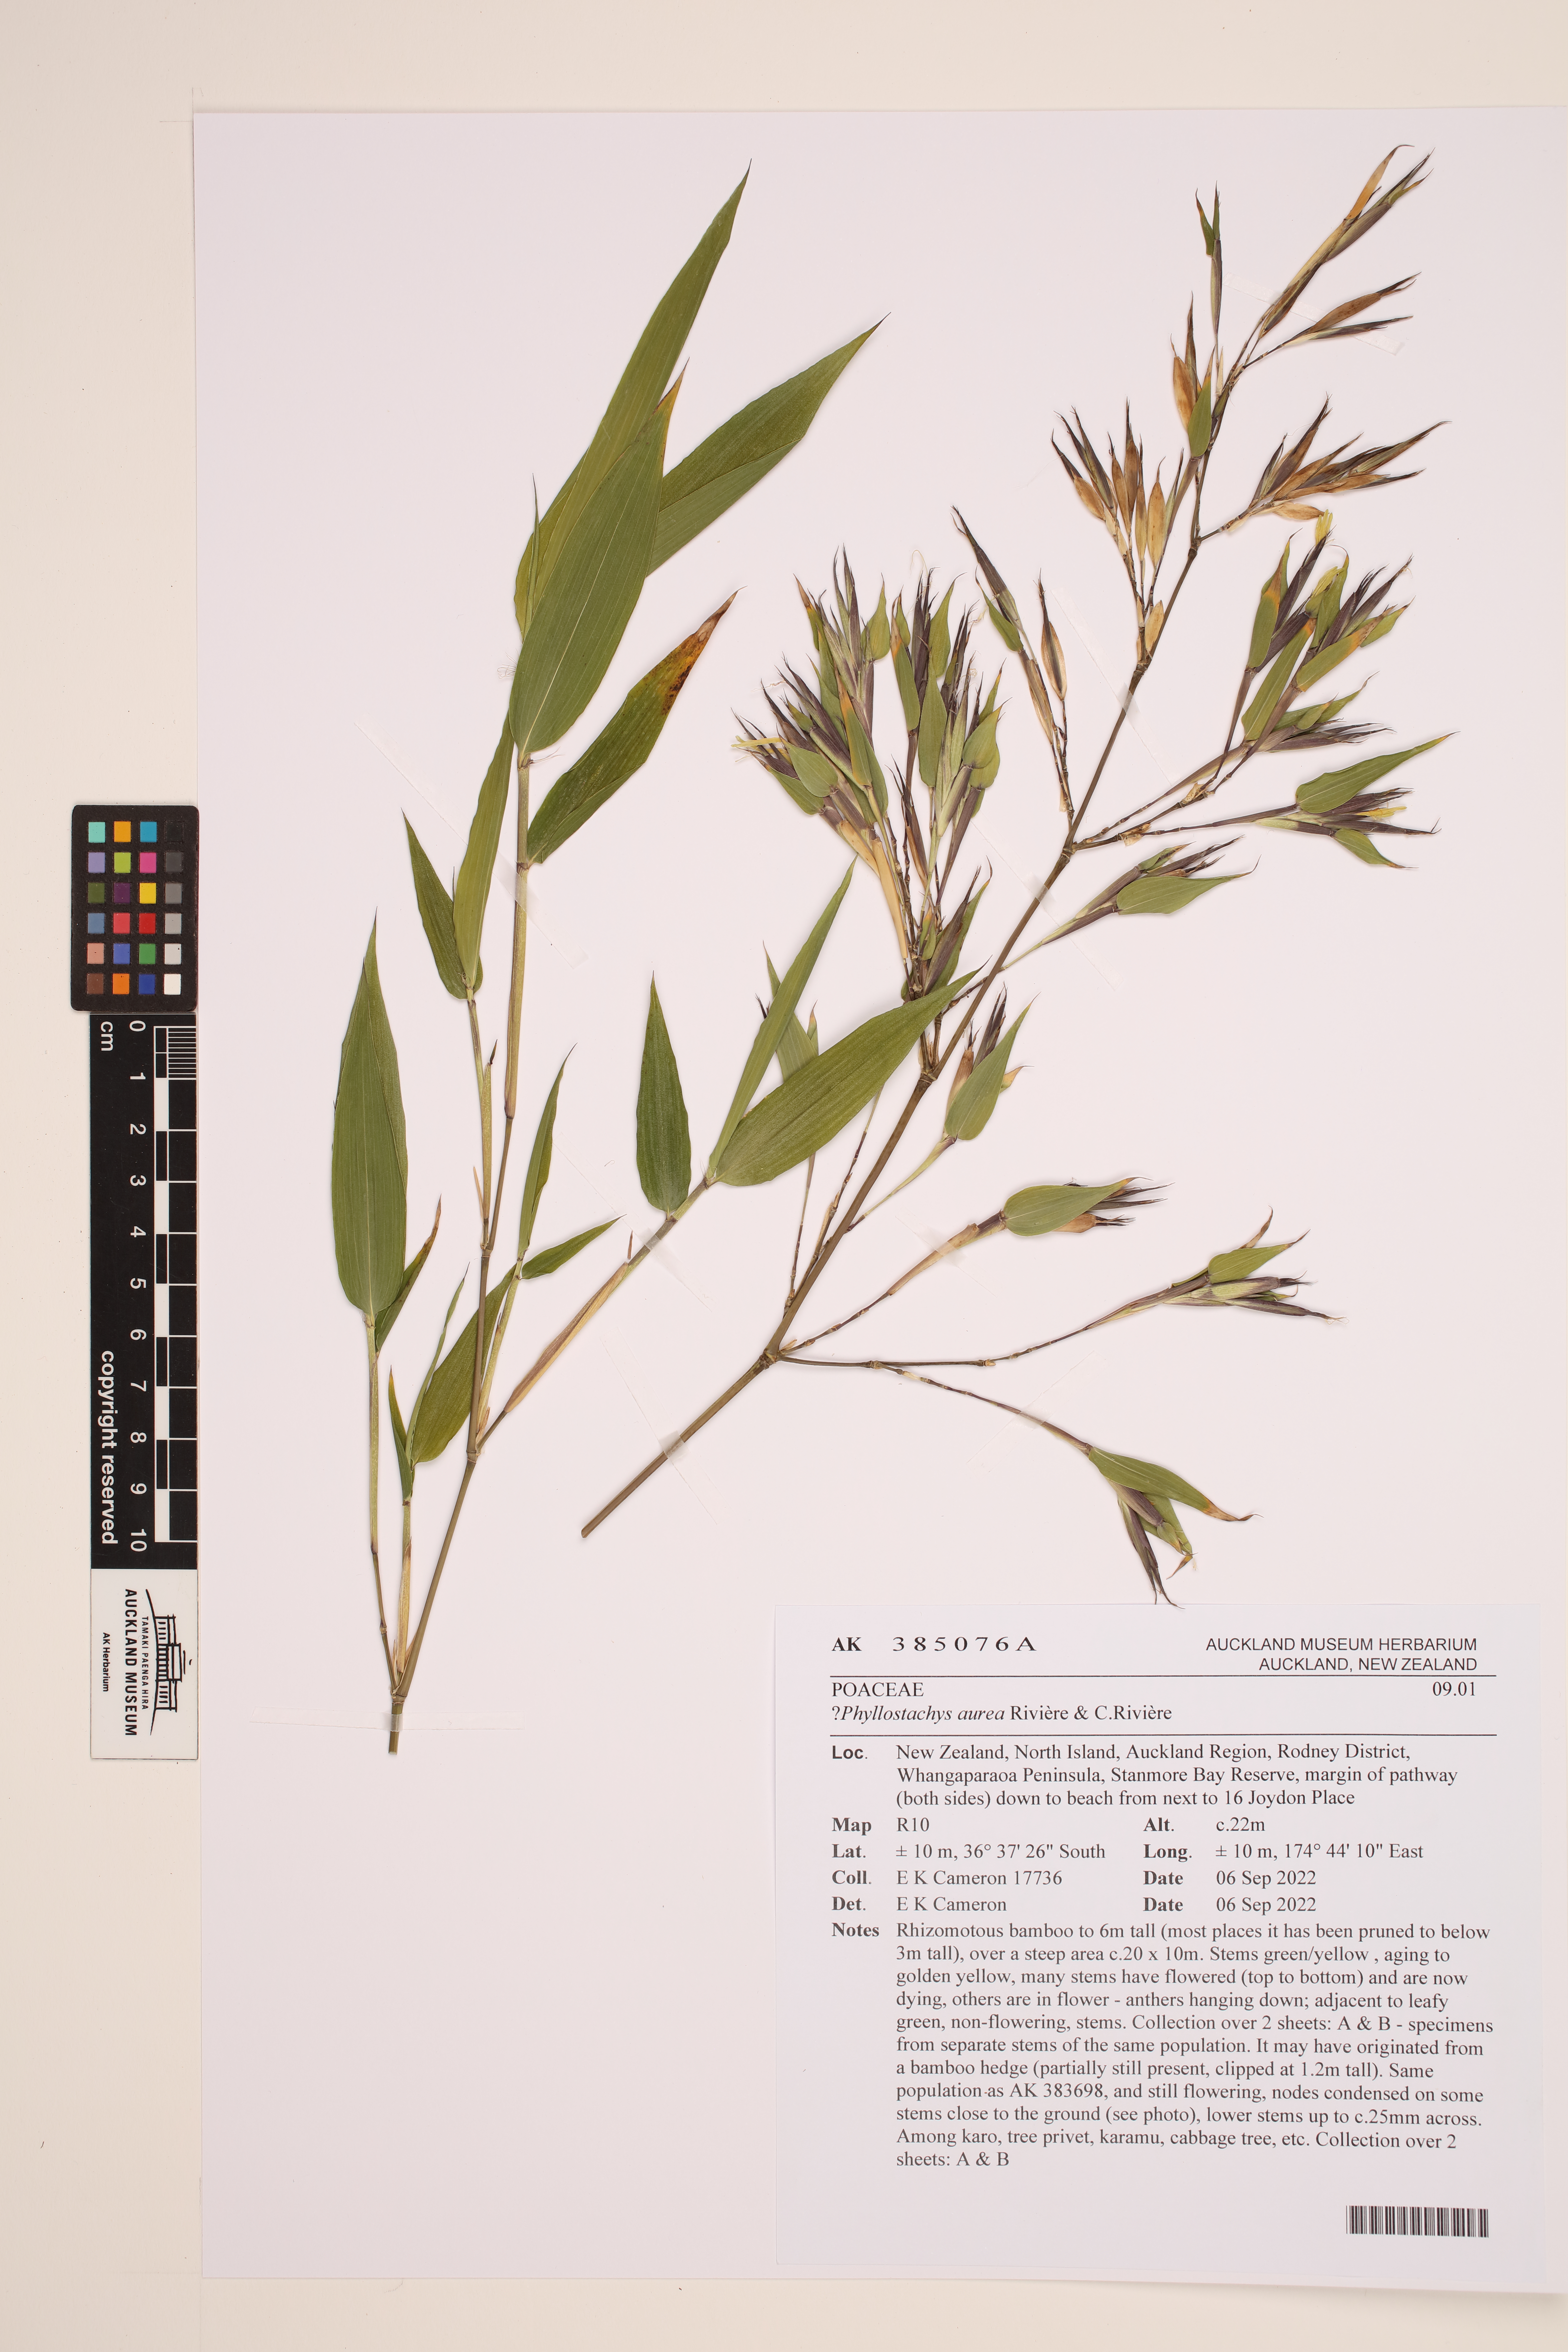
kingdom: Plantae
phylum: Tracheophyta
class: Liliopsida
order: Poales
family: Poaceae
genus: Phyllostachys
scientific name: Phyllostachys aurea
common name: Golden bamboo
